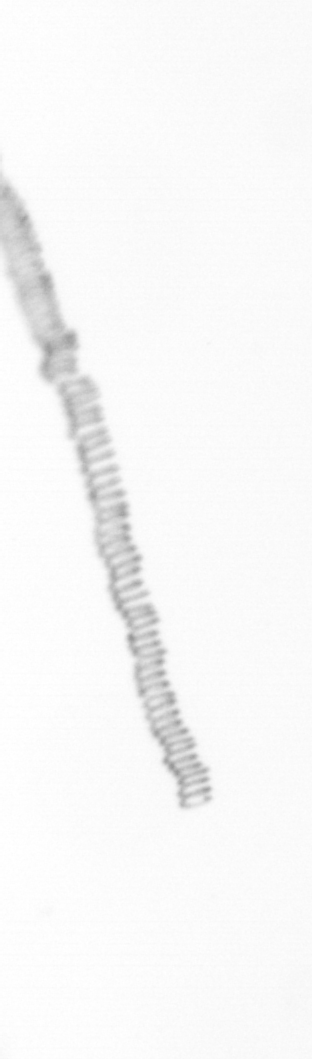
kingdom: Chromista
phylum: Ochrophyta
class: Bacillariophyceae
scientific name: Bacillariophyceae
